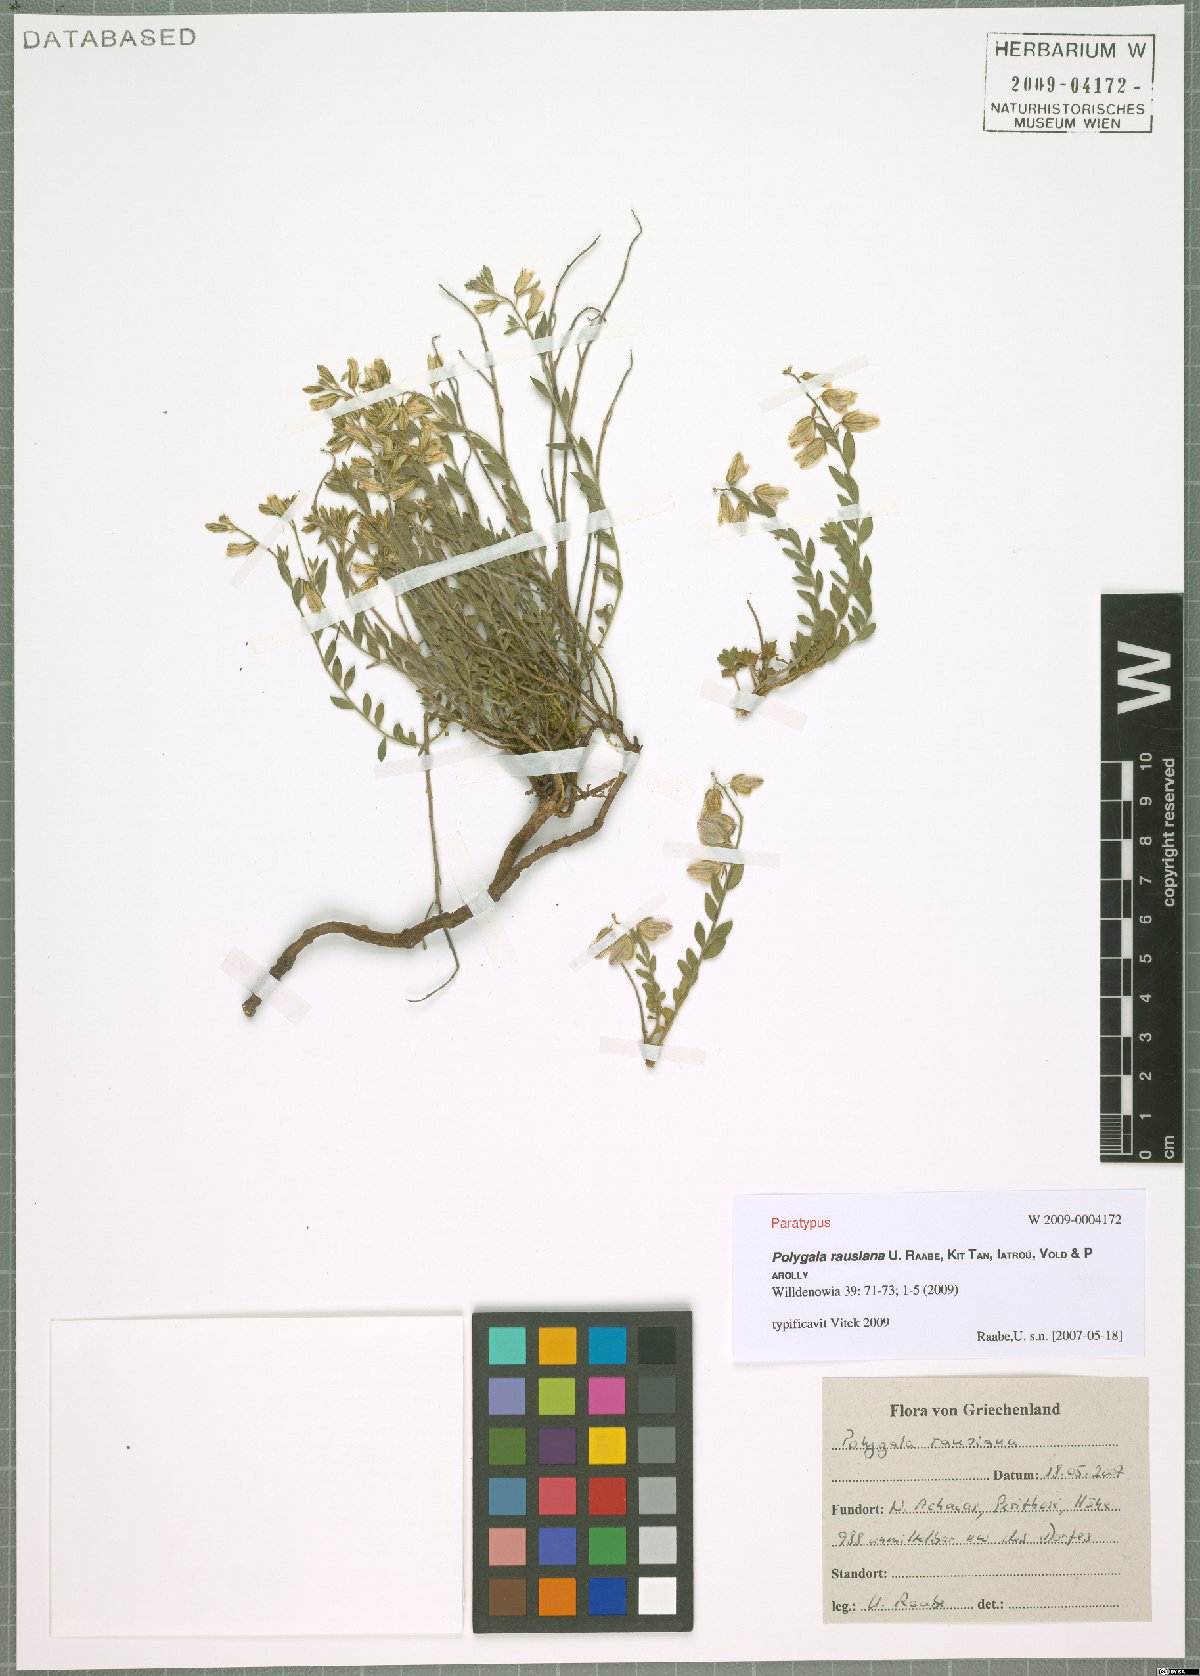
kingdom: Plantae
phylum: Tracheophyta
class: Magnoliopsida
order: Fabales
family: Polygalaceae
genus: Polygala
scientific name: Polygala rausiana
